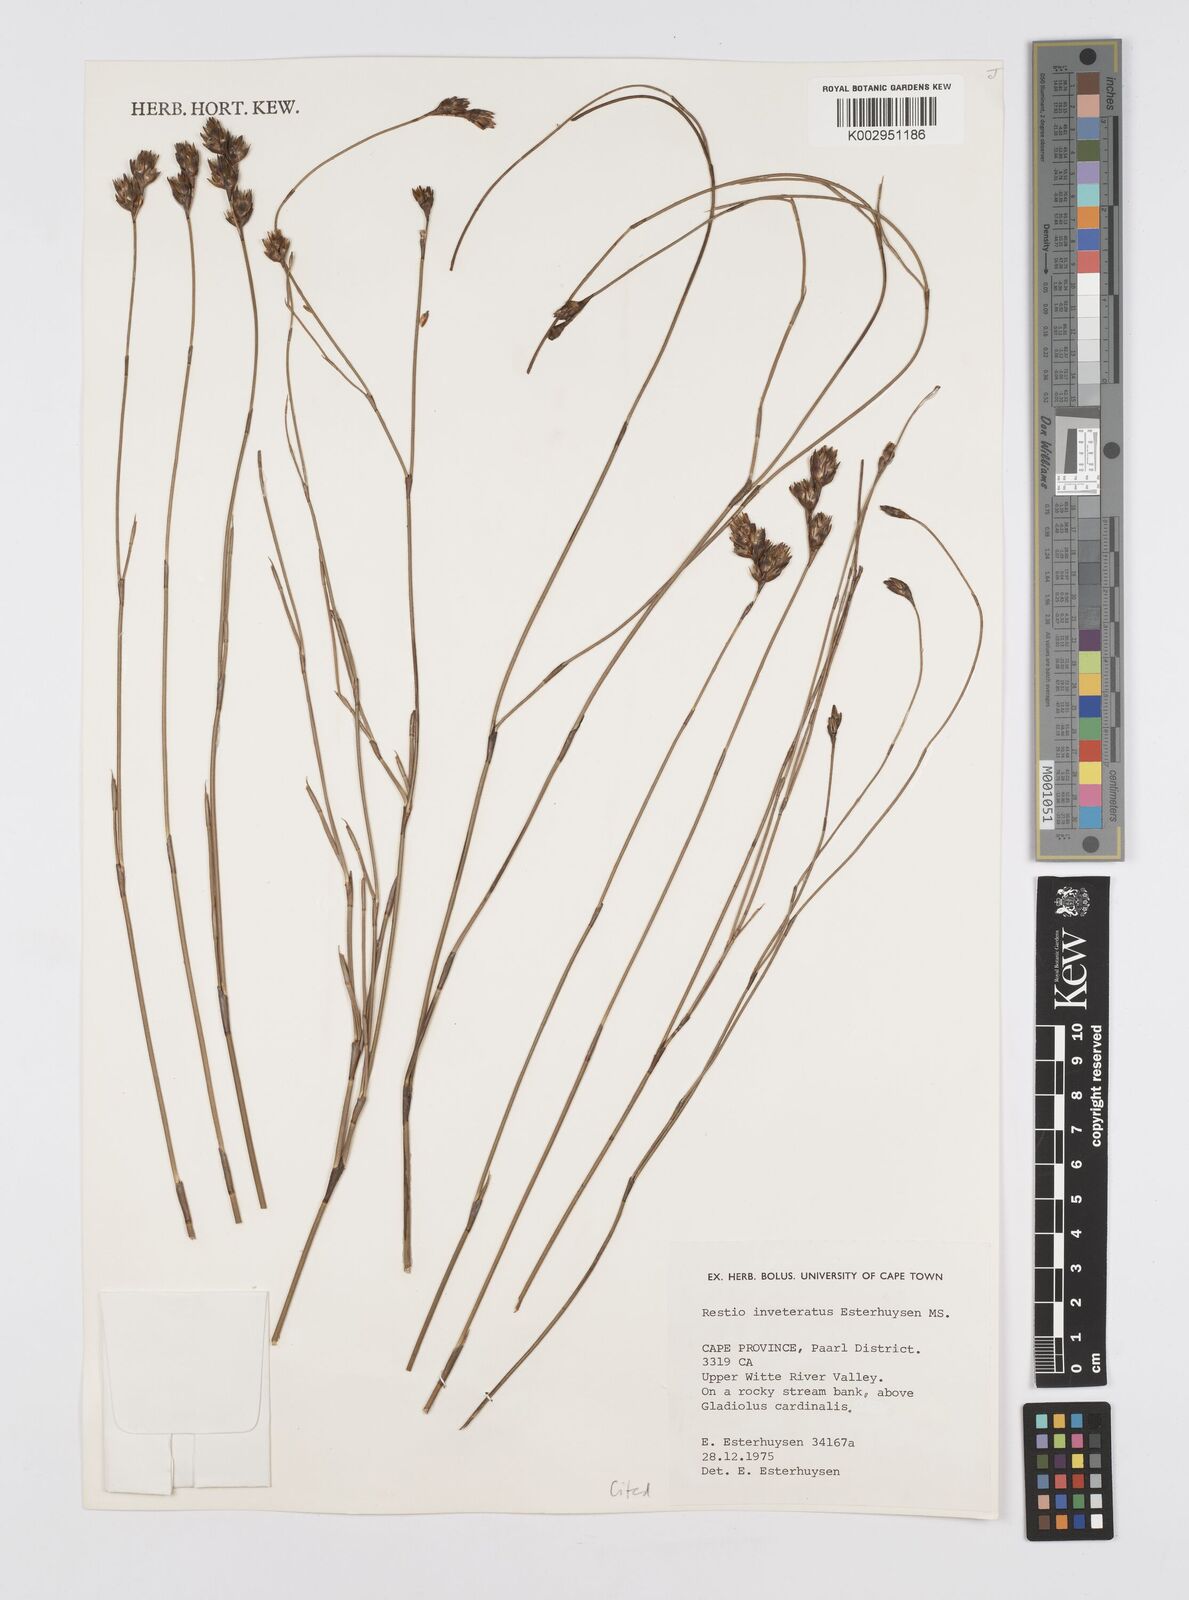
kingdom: Plantae
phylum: Tracheophyta
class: Liliopsida
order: Poales
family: Restionaceae
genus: Restio
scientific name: Restio inveteratus
